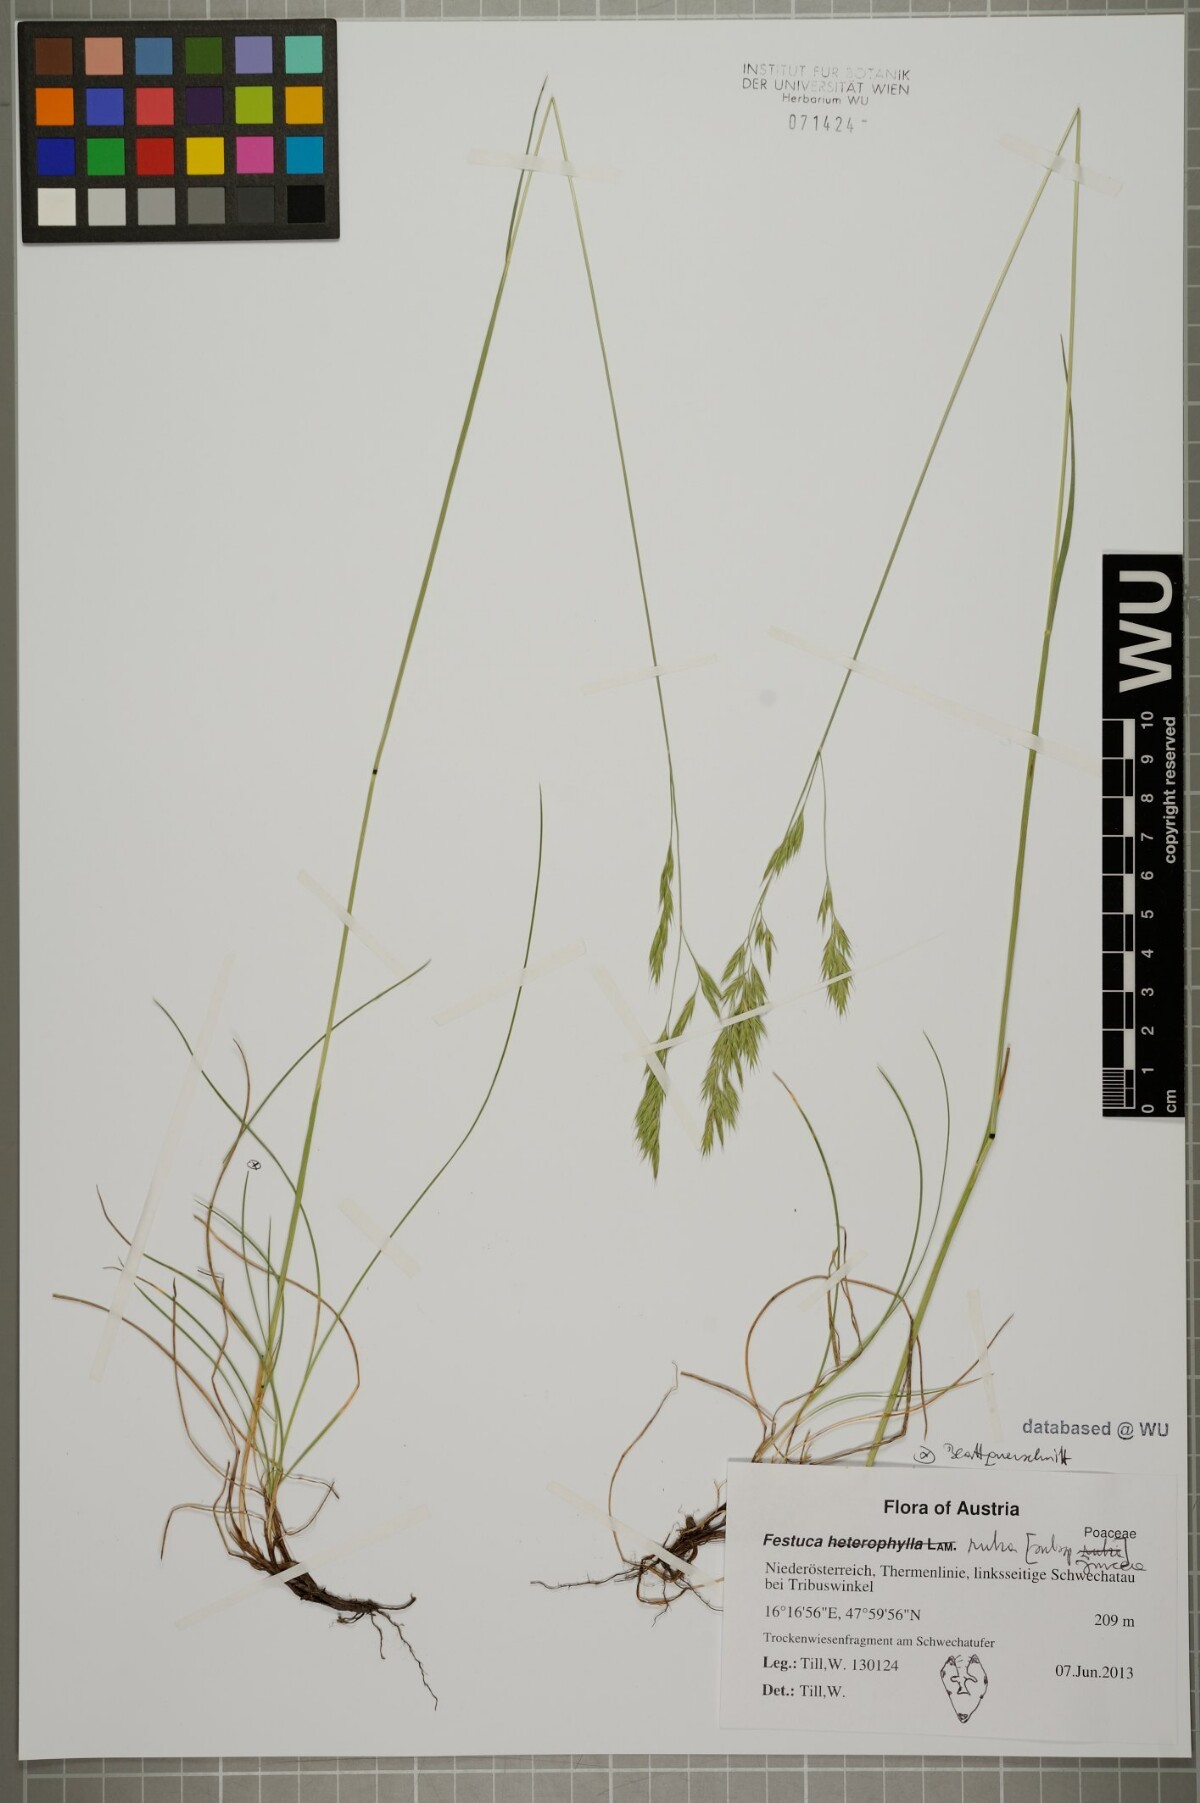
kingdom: Plantae
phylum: Tracheophyta
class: Liliopsida
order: Poales
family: Poaceae
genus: Festuca
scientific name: Festuca rubra
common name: Red fescue
